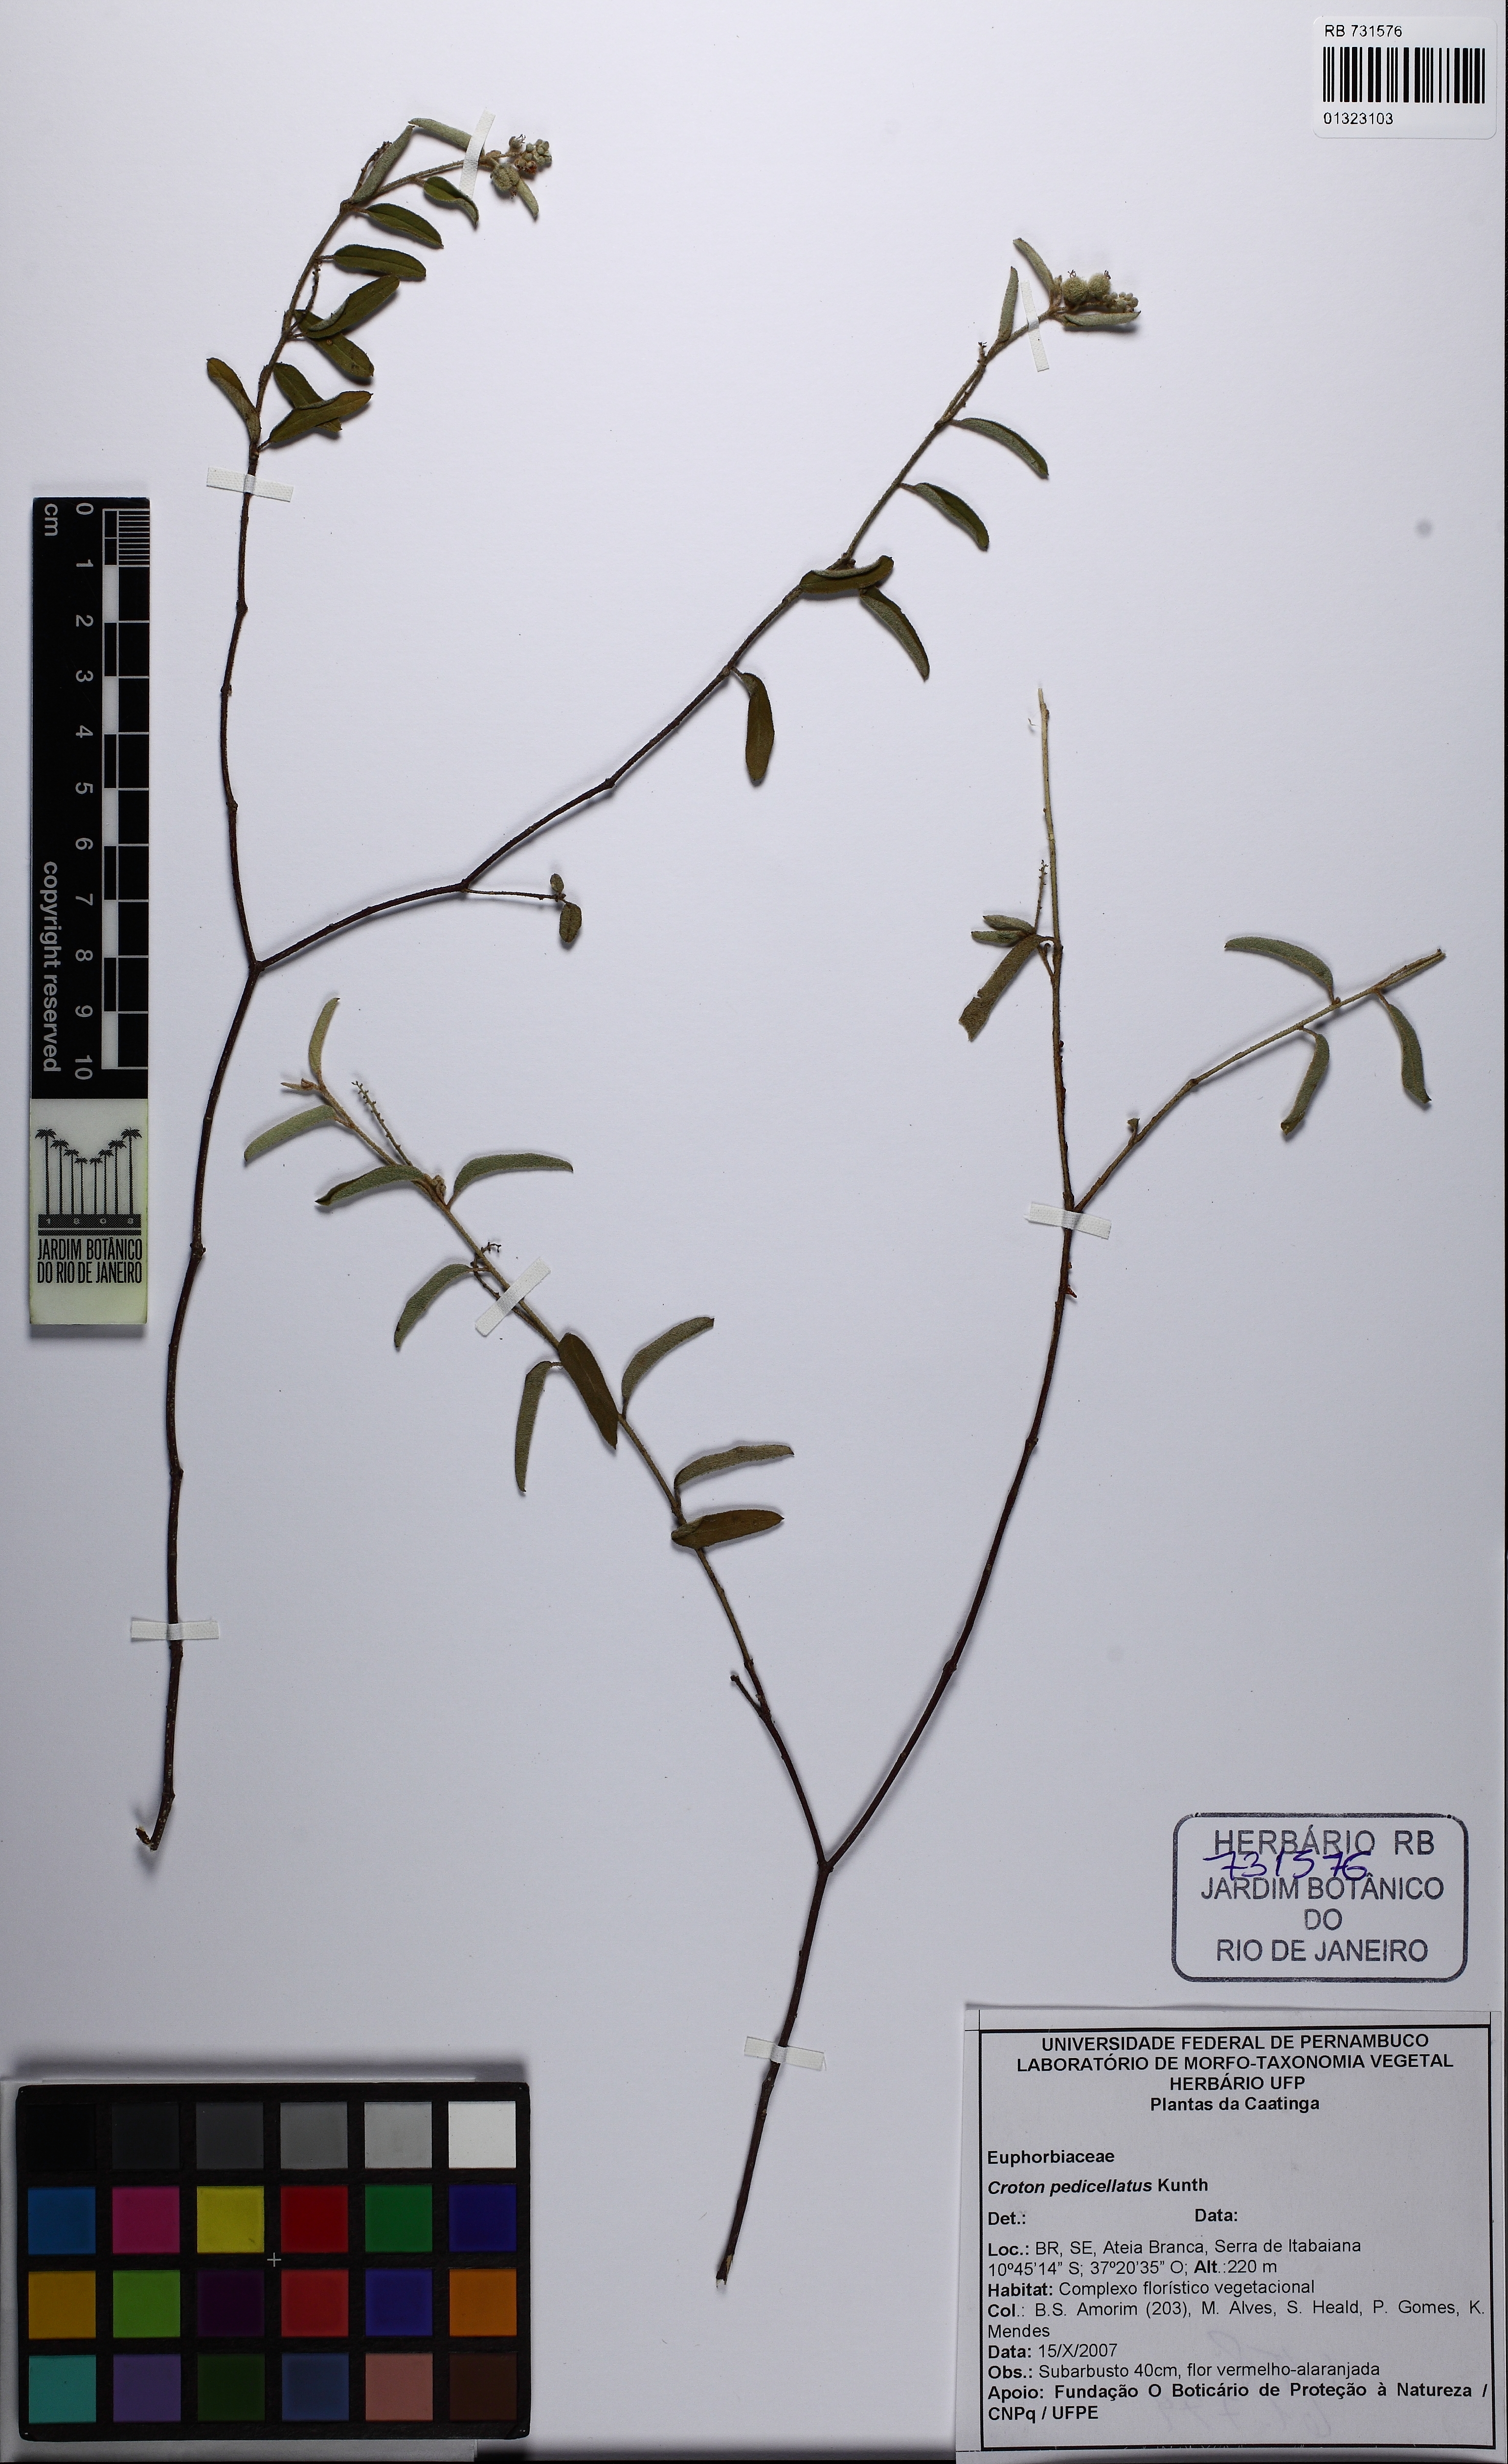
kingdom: Plantae
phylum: Tracheophyta
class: Magnoliopsida
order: Malpighiales
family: Euphorbiaceae
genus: Croton
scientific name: Croton pedicellatus
